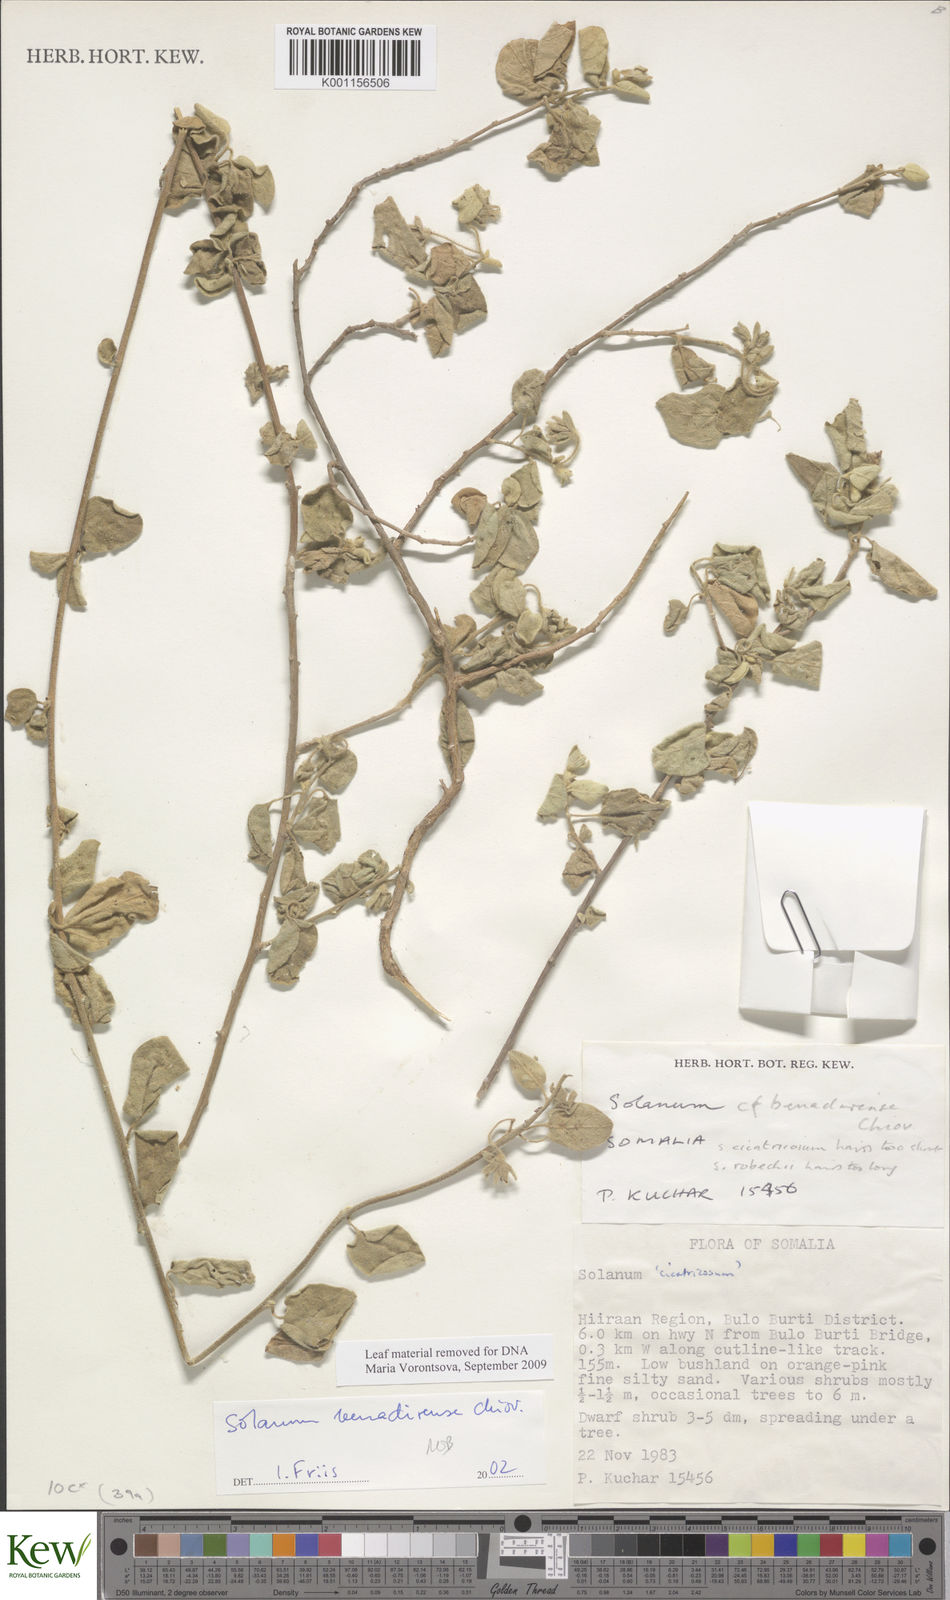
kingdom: Plantae
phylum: Tracheophyta
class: Magnoliopsida
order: Solanales
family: Solanaceae
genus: Solanum
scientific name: Solanum pampaninii
